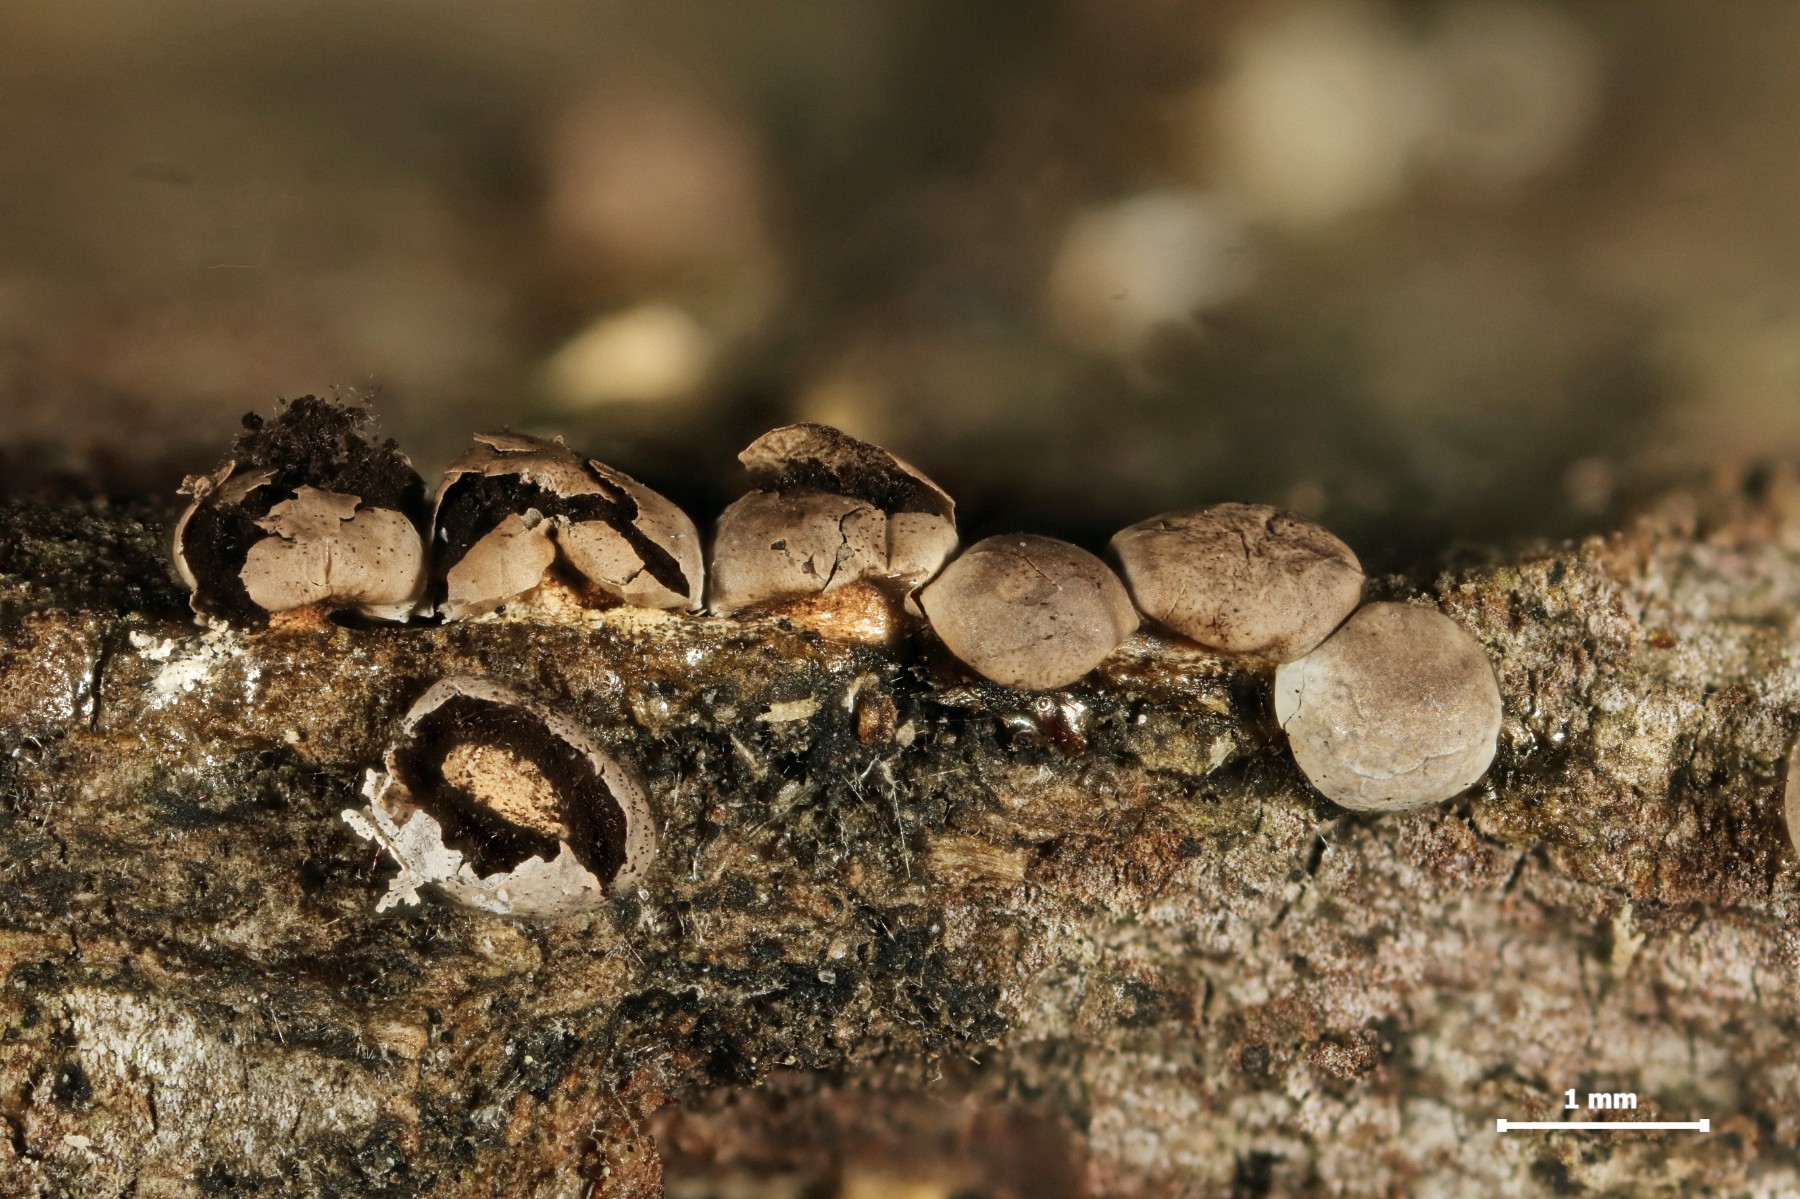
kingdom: Protozoa
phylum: Mycetozoa
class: Myxomycetes
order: Physarales
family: Didymiaceae
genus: Diderma
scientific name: Diderma umbilicatum
